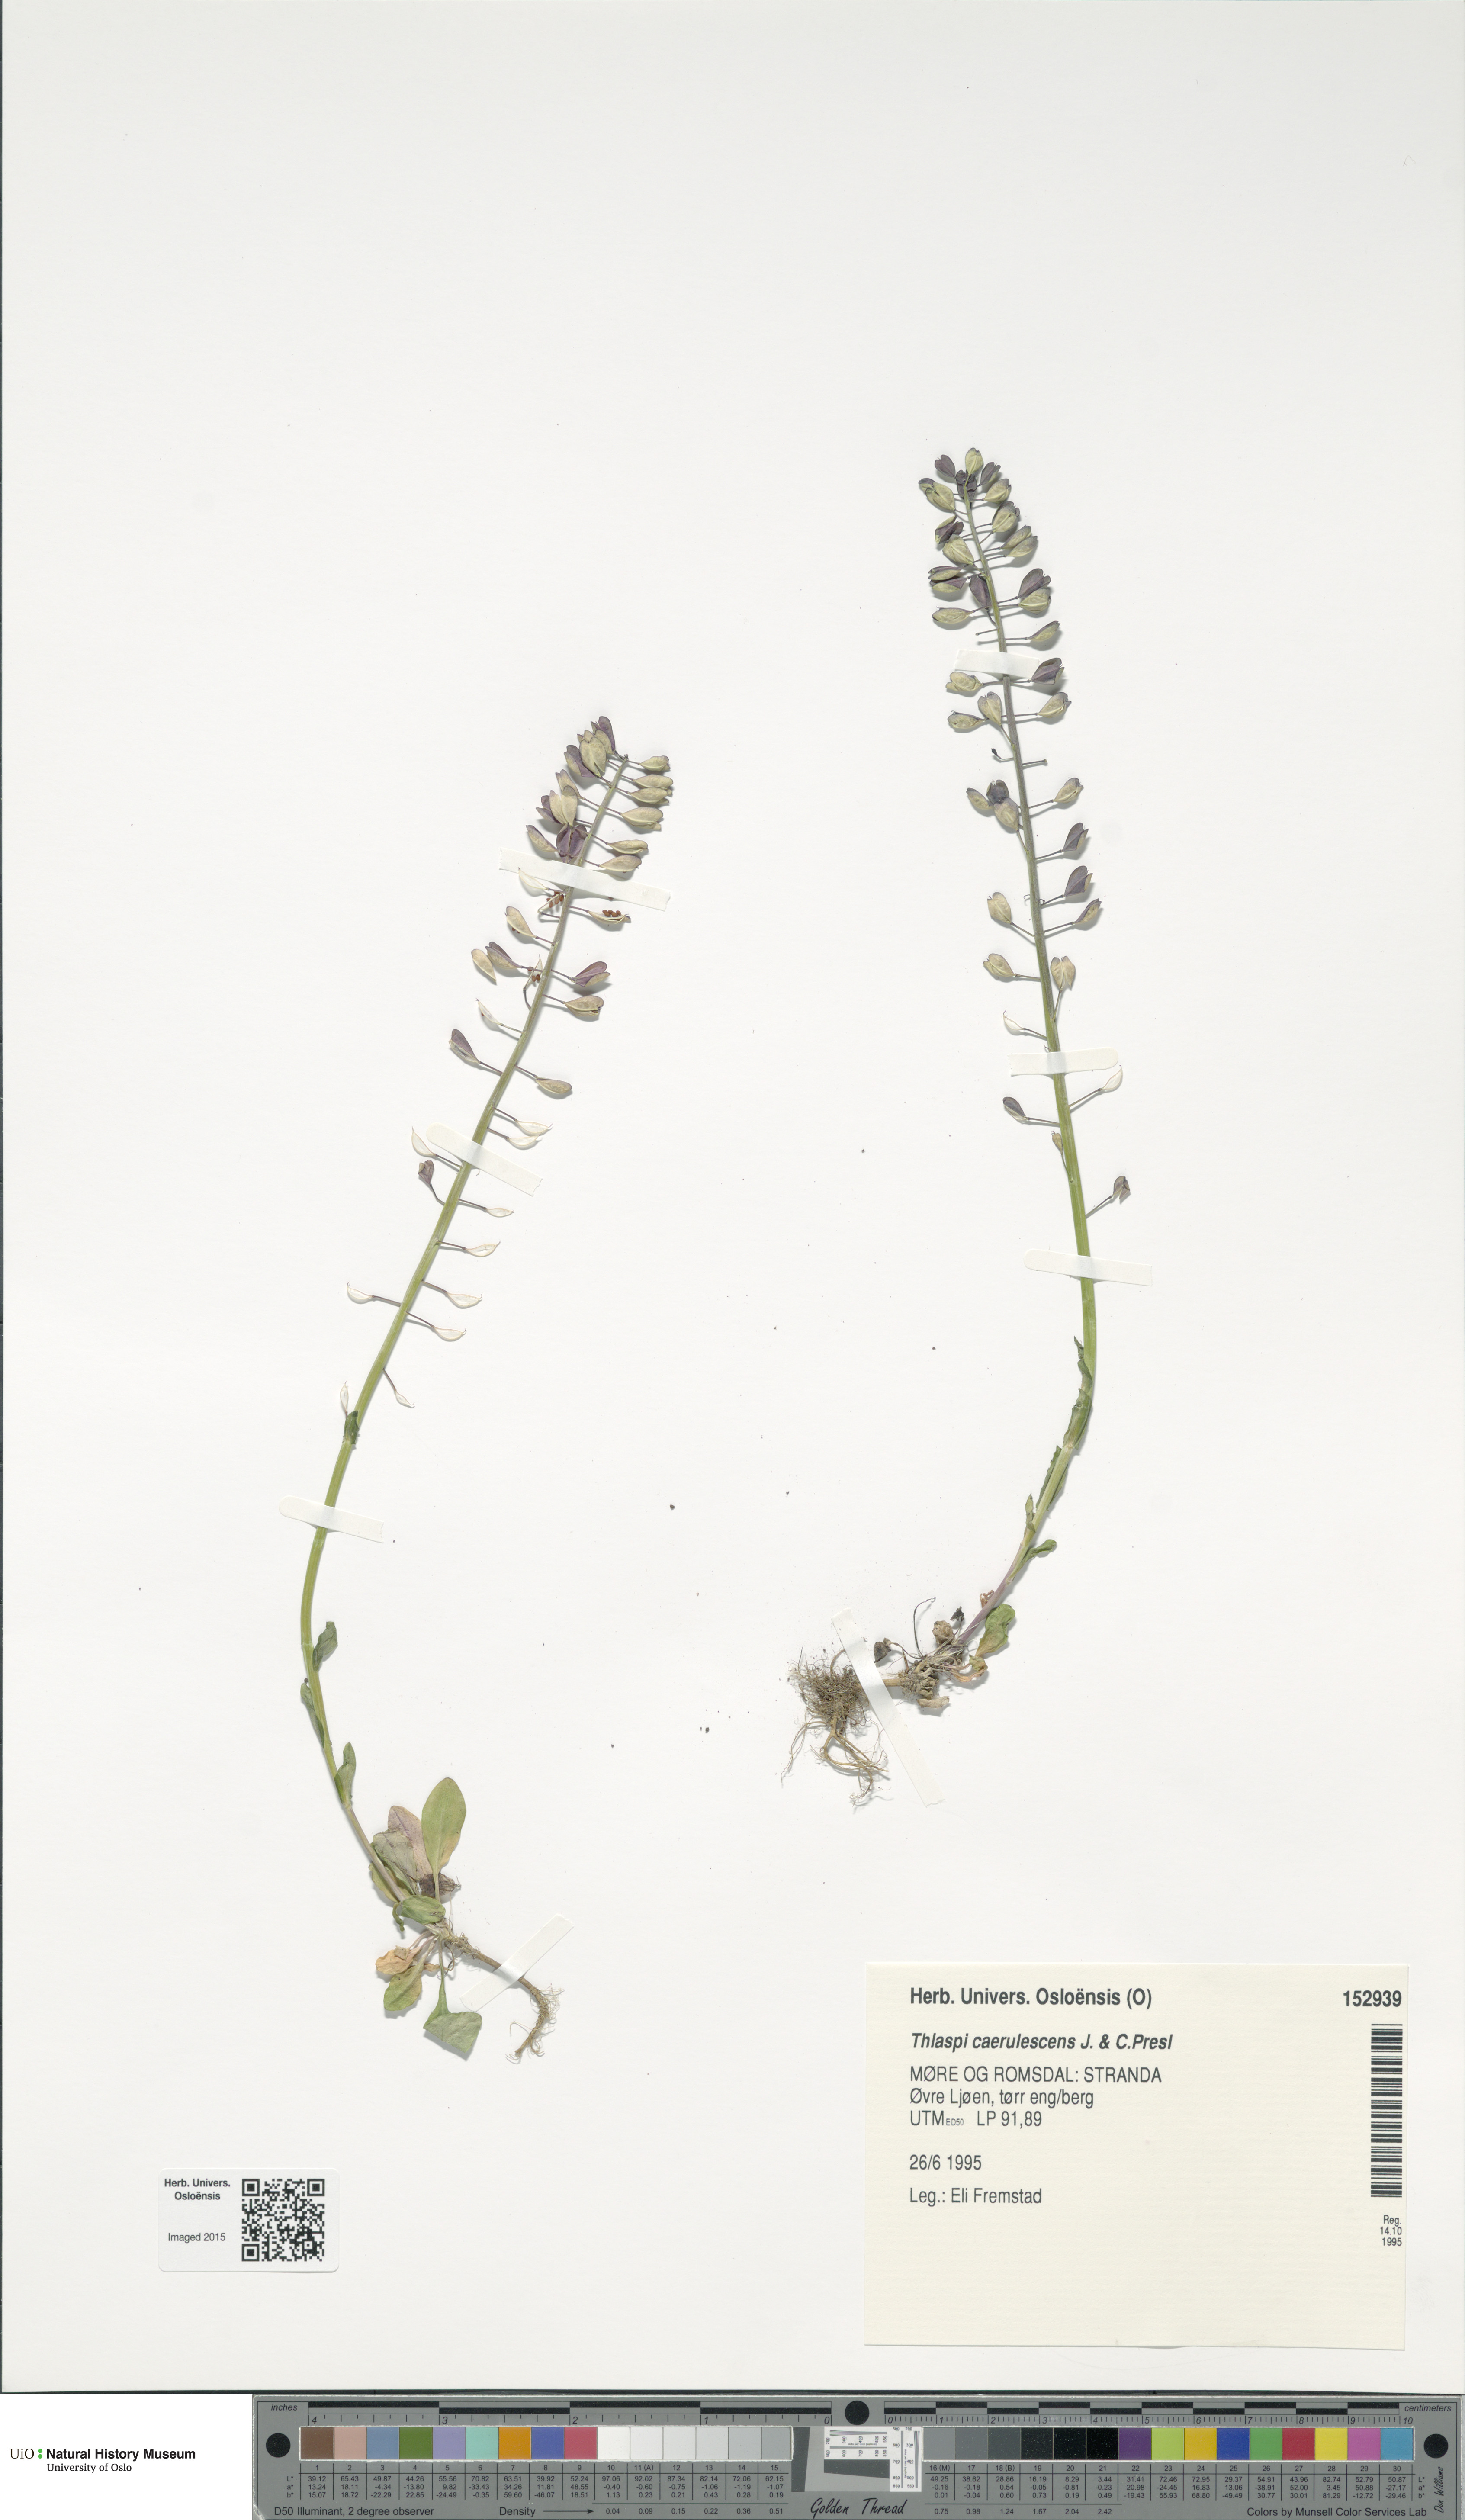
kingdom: Plantae
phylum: Tracheophyta
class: Magnoliopsida
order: Brassicales
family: Brassicaceae
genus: Noccaea
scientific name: Noccaea caerulescens
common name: Alpine pennycress
